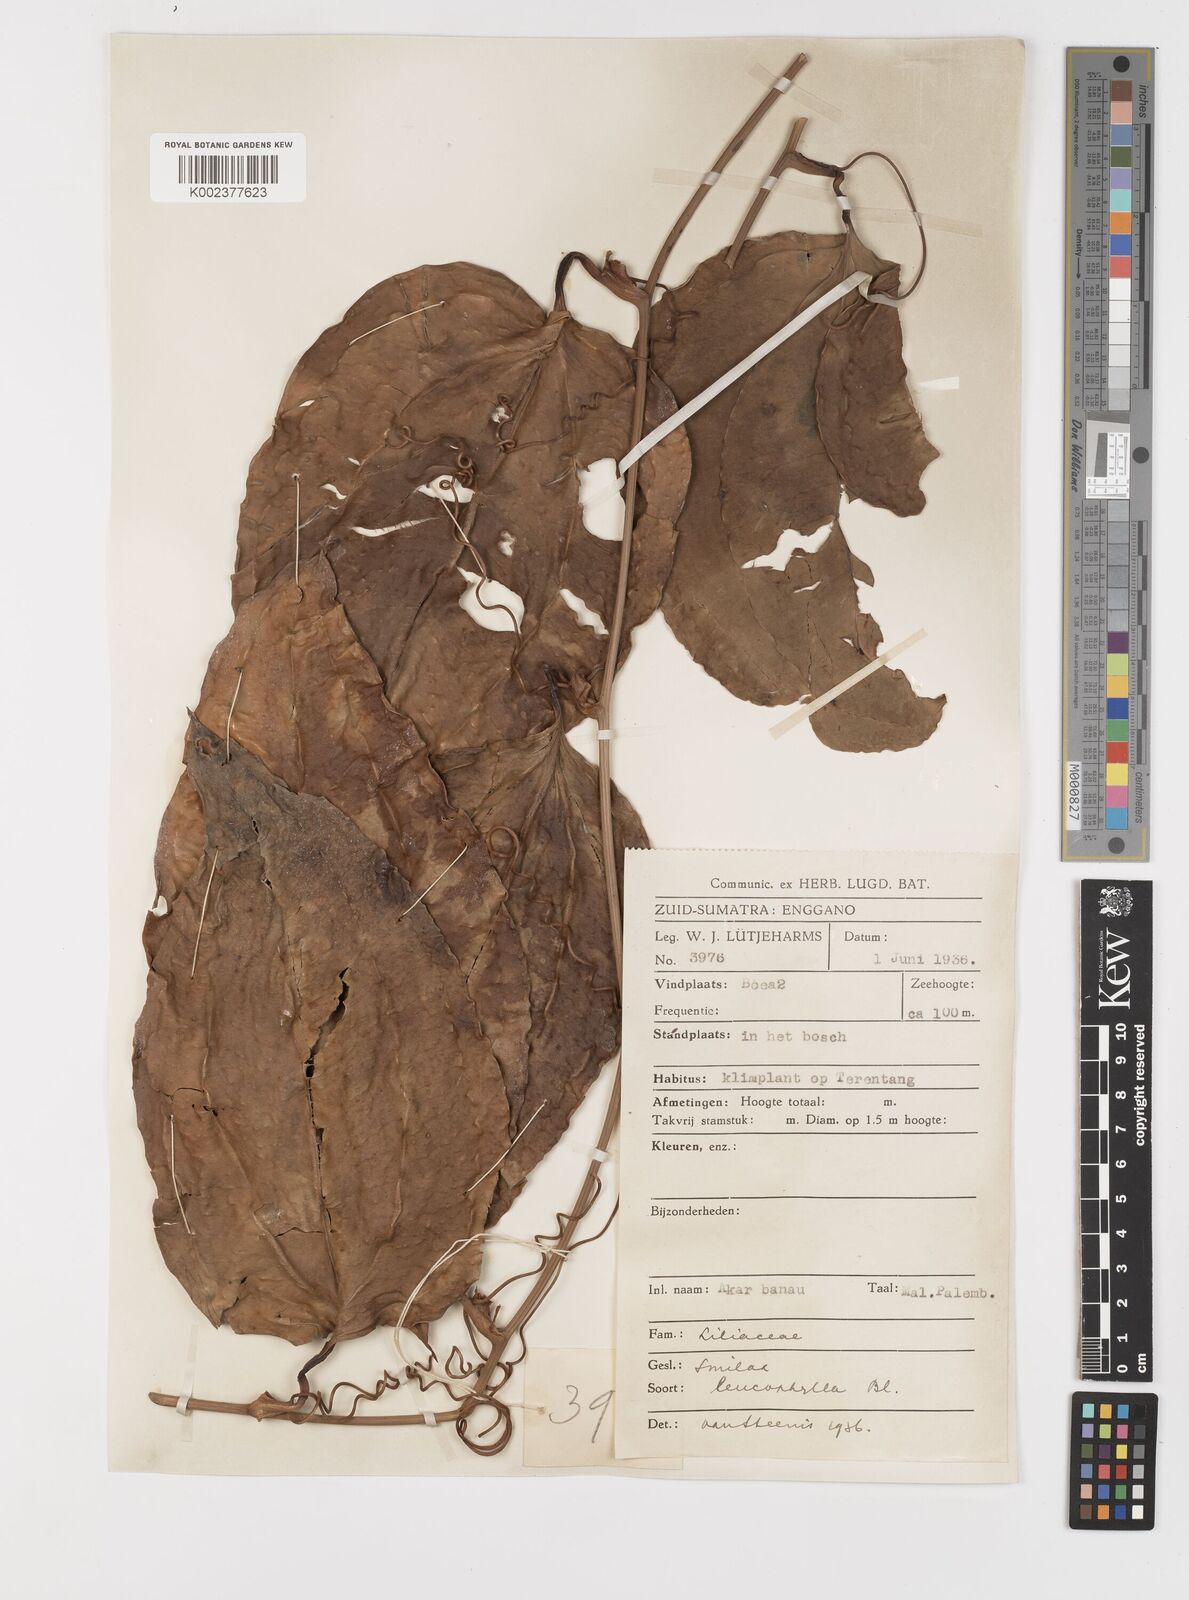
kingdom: Plantae
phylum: Tracheophyta
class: Liliopsida
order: Liliales
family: Smilacaceae
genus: Smilax
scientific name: Smilax leucophylla
